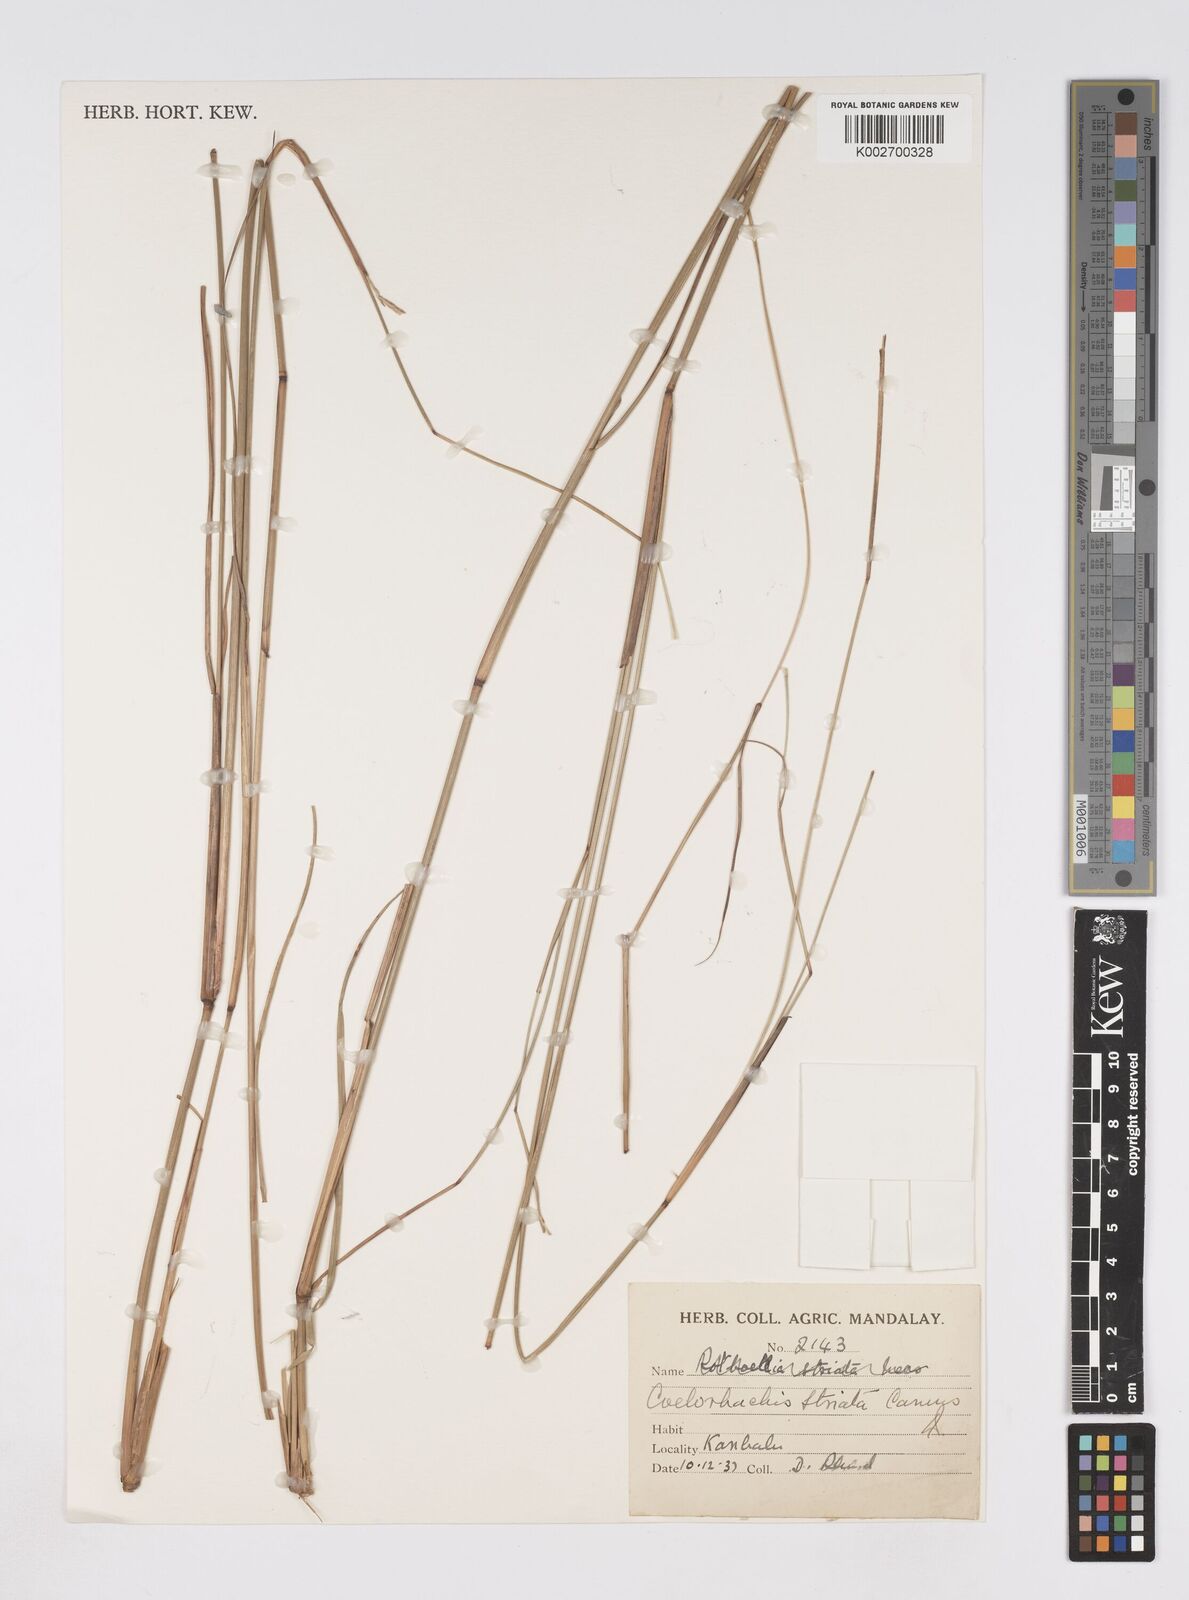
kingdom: Plantae
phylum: Tracheophyta
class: Liliopsida
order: Poales
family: Poaceae
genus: Rottboellia
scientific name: Rottboellia striata
